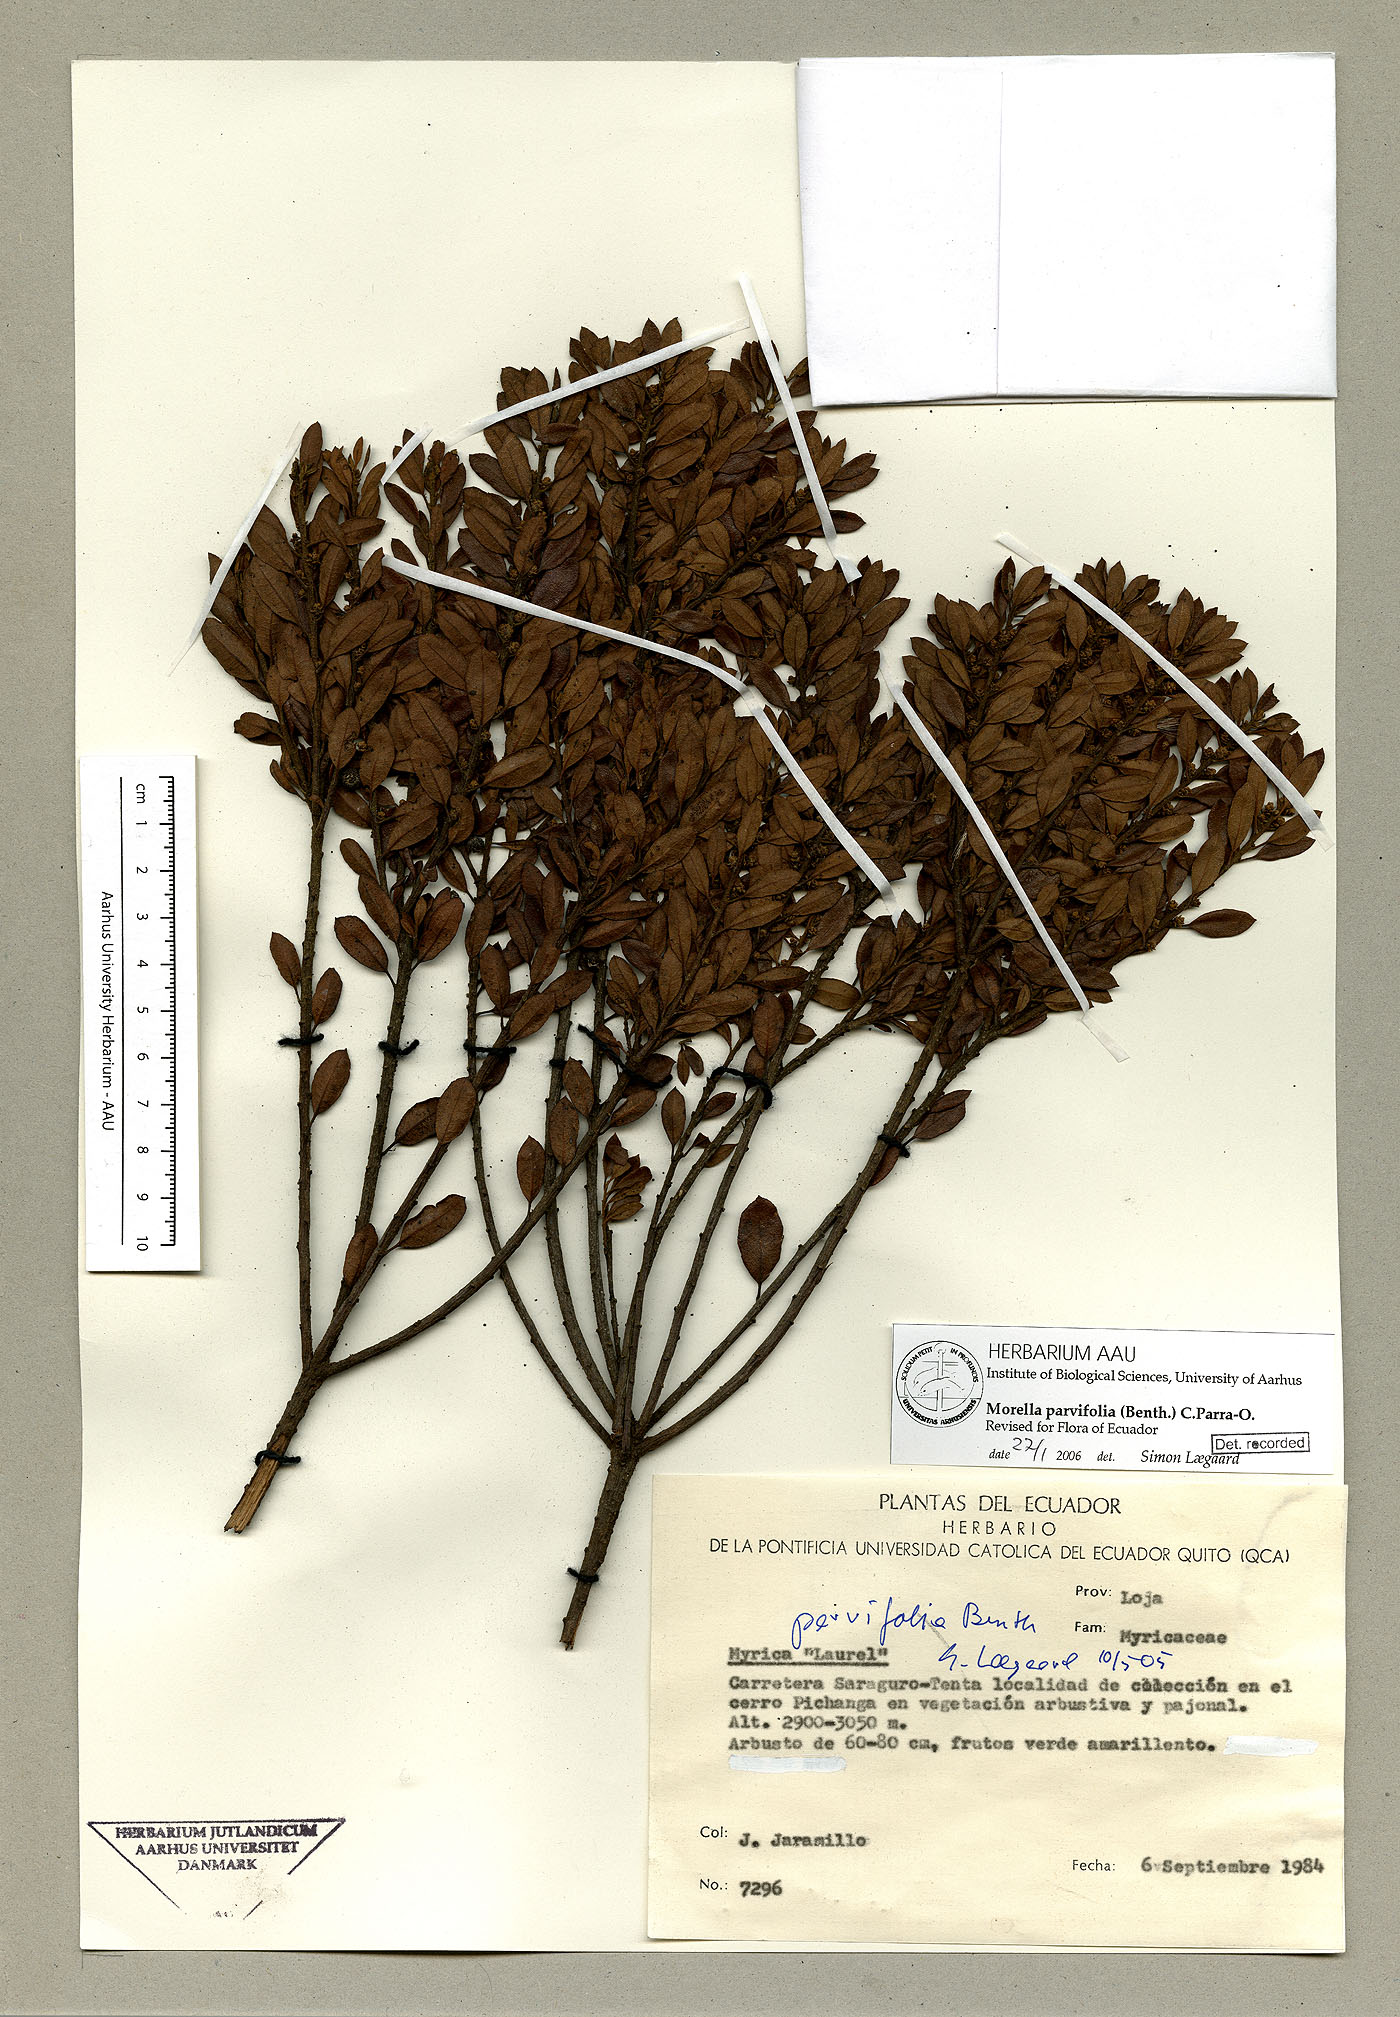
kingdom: Plantae
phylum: Tracheophyta
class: Magnoliopsida
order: Fagales
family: Myricaceae
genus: Morella
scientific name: Morella parvifolia
